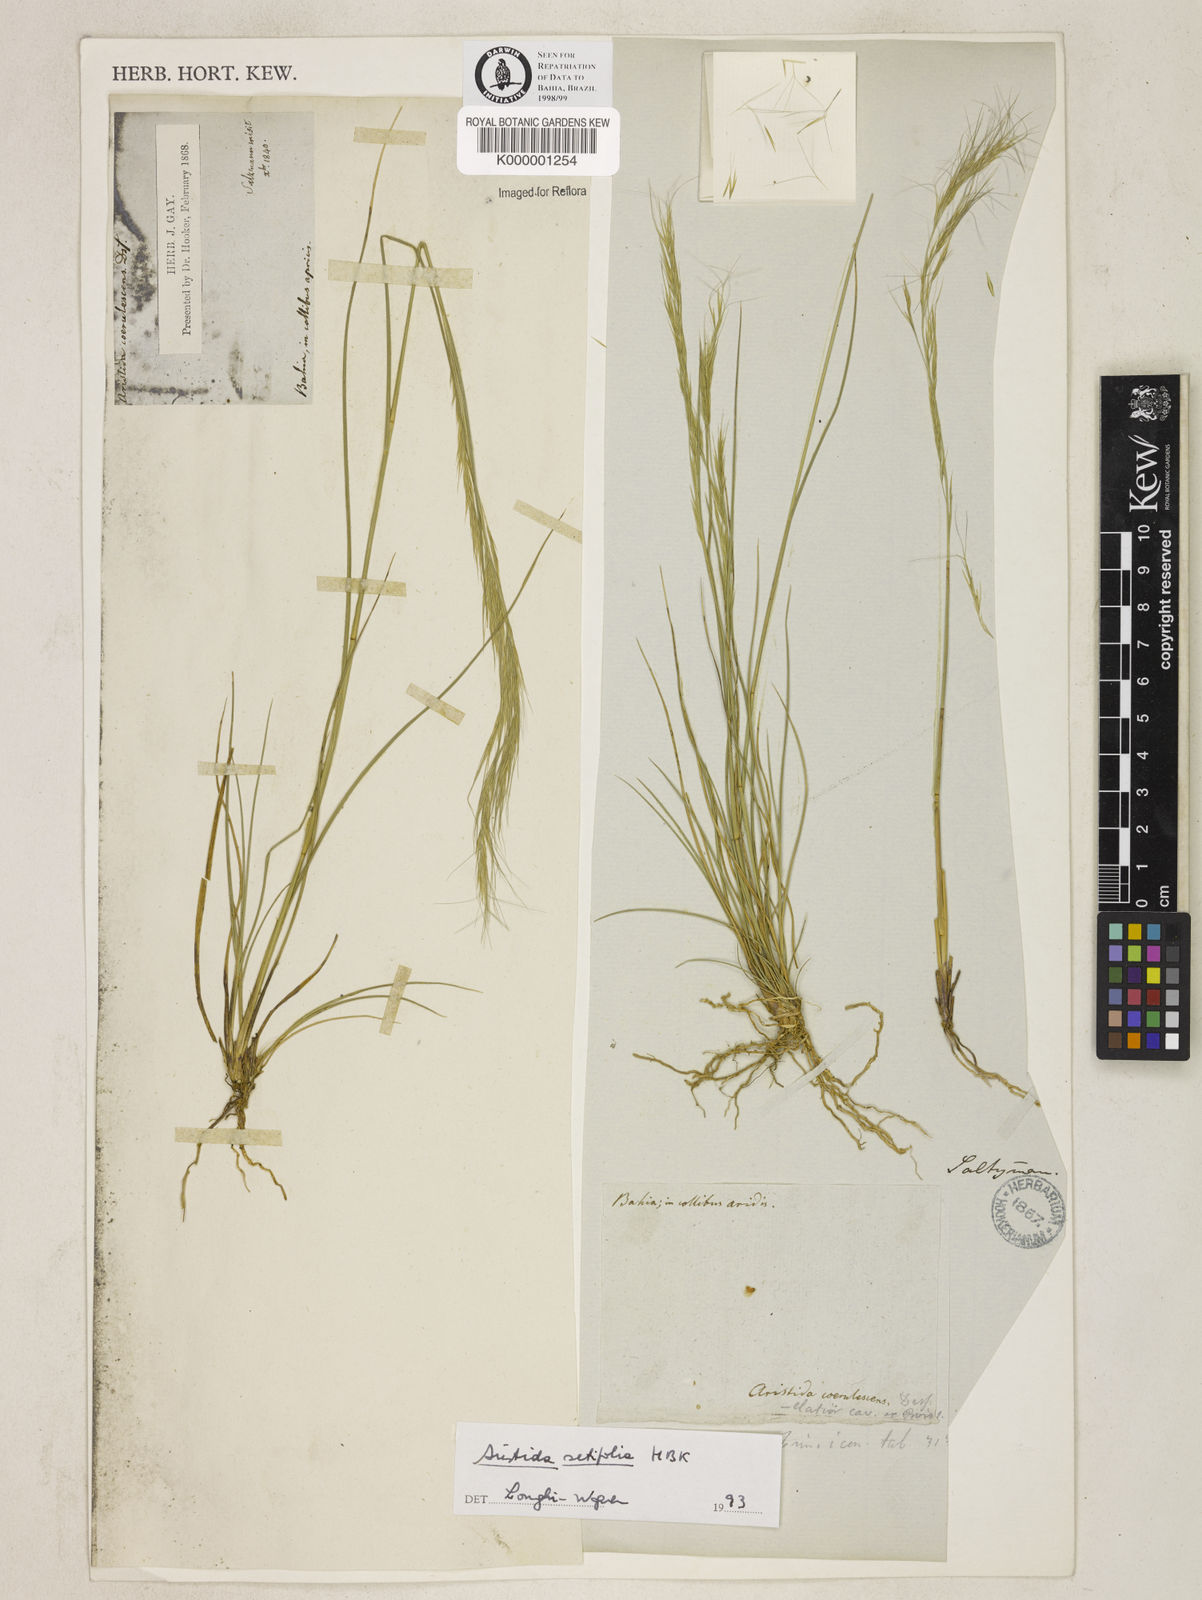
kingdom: Plantae
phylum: Tracheophyta
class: Liliopsida
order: Poales
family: Poaceae
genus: Aristida
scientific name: Aristida setifolia
